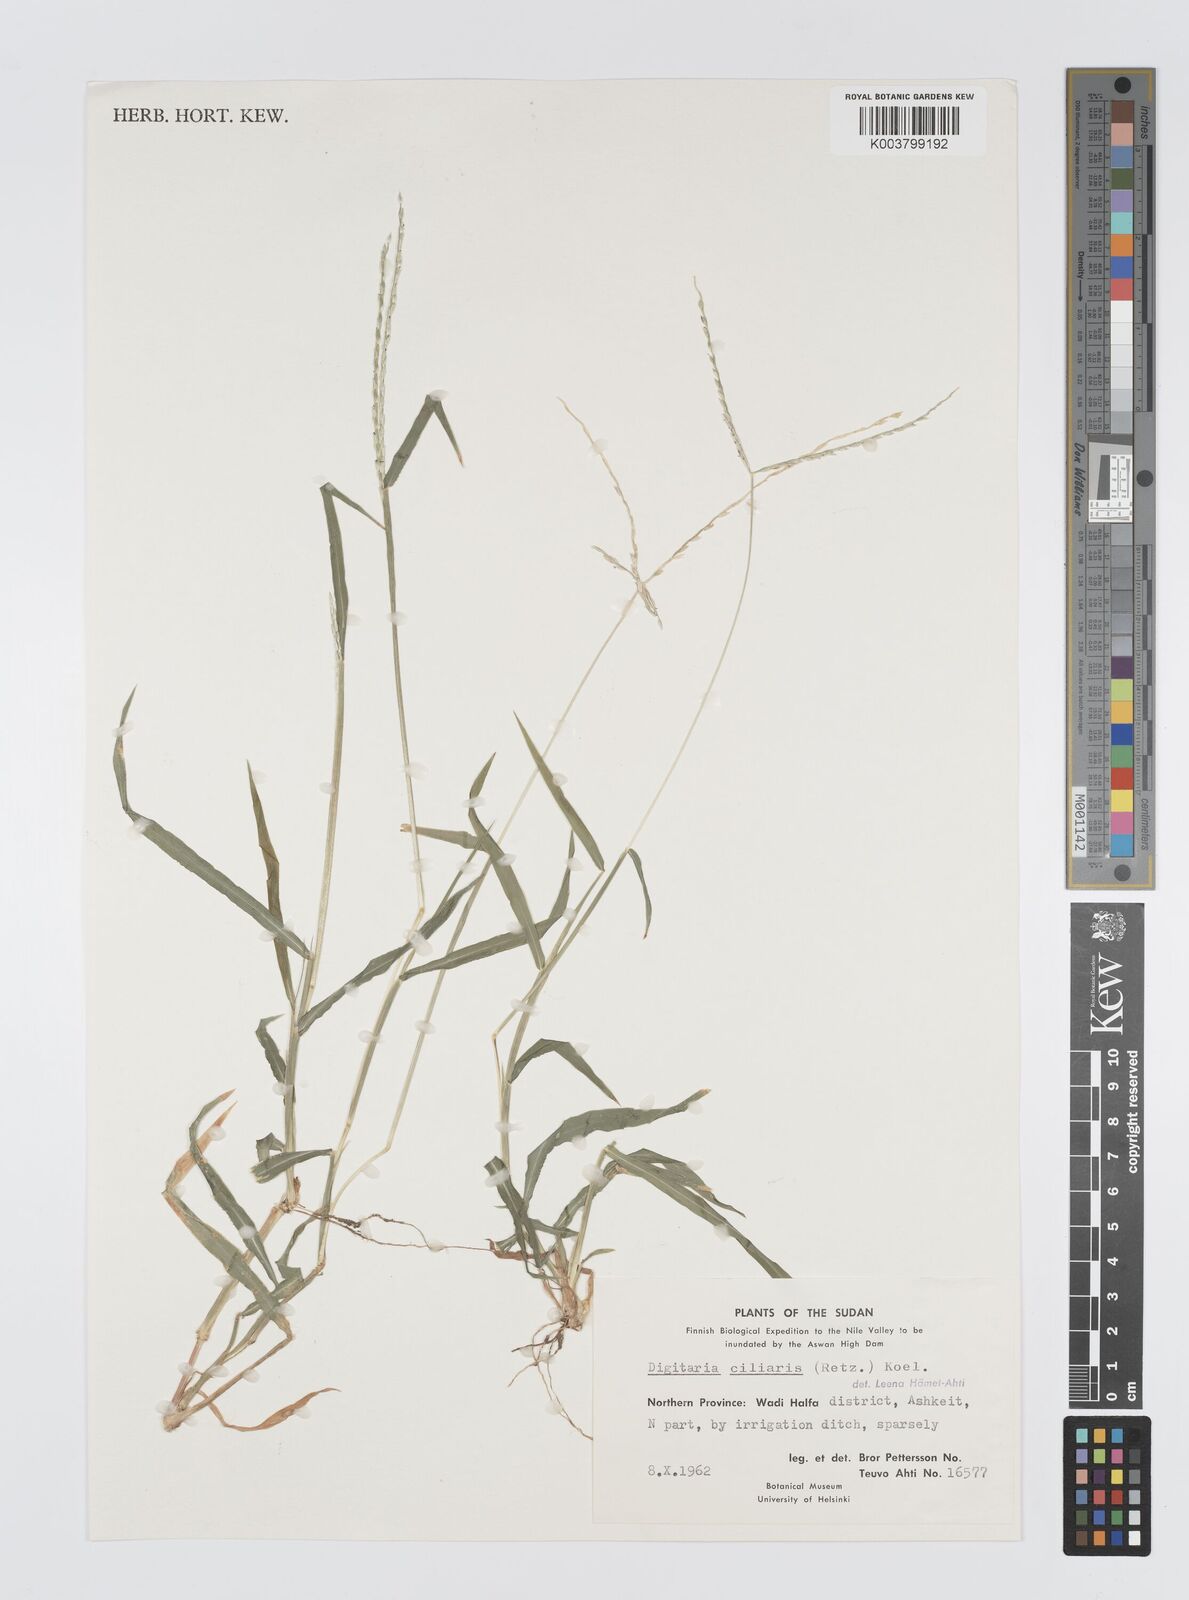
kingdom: Plantae
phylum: Tracheophyta
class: Liliopsida
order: Poales
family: Poaceae
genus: Digitaria
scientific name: Digitaria spec
